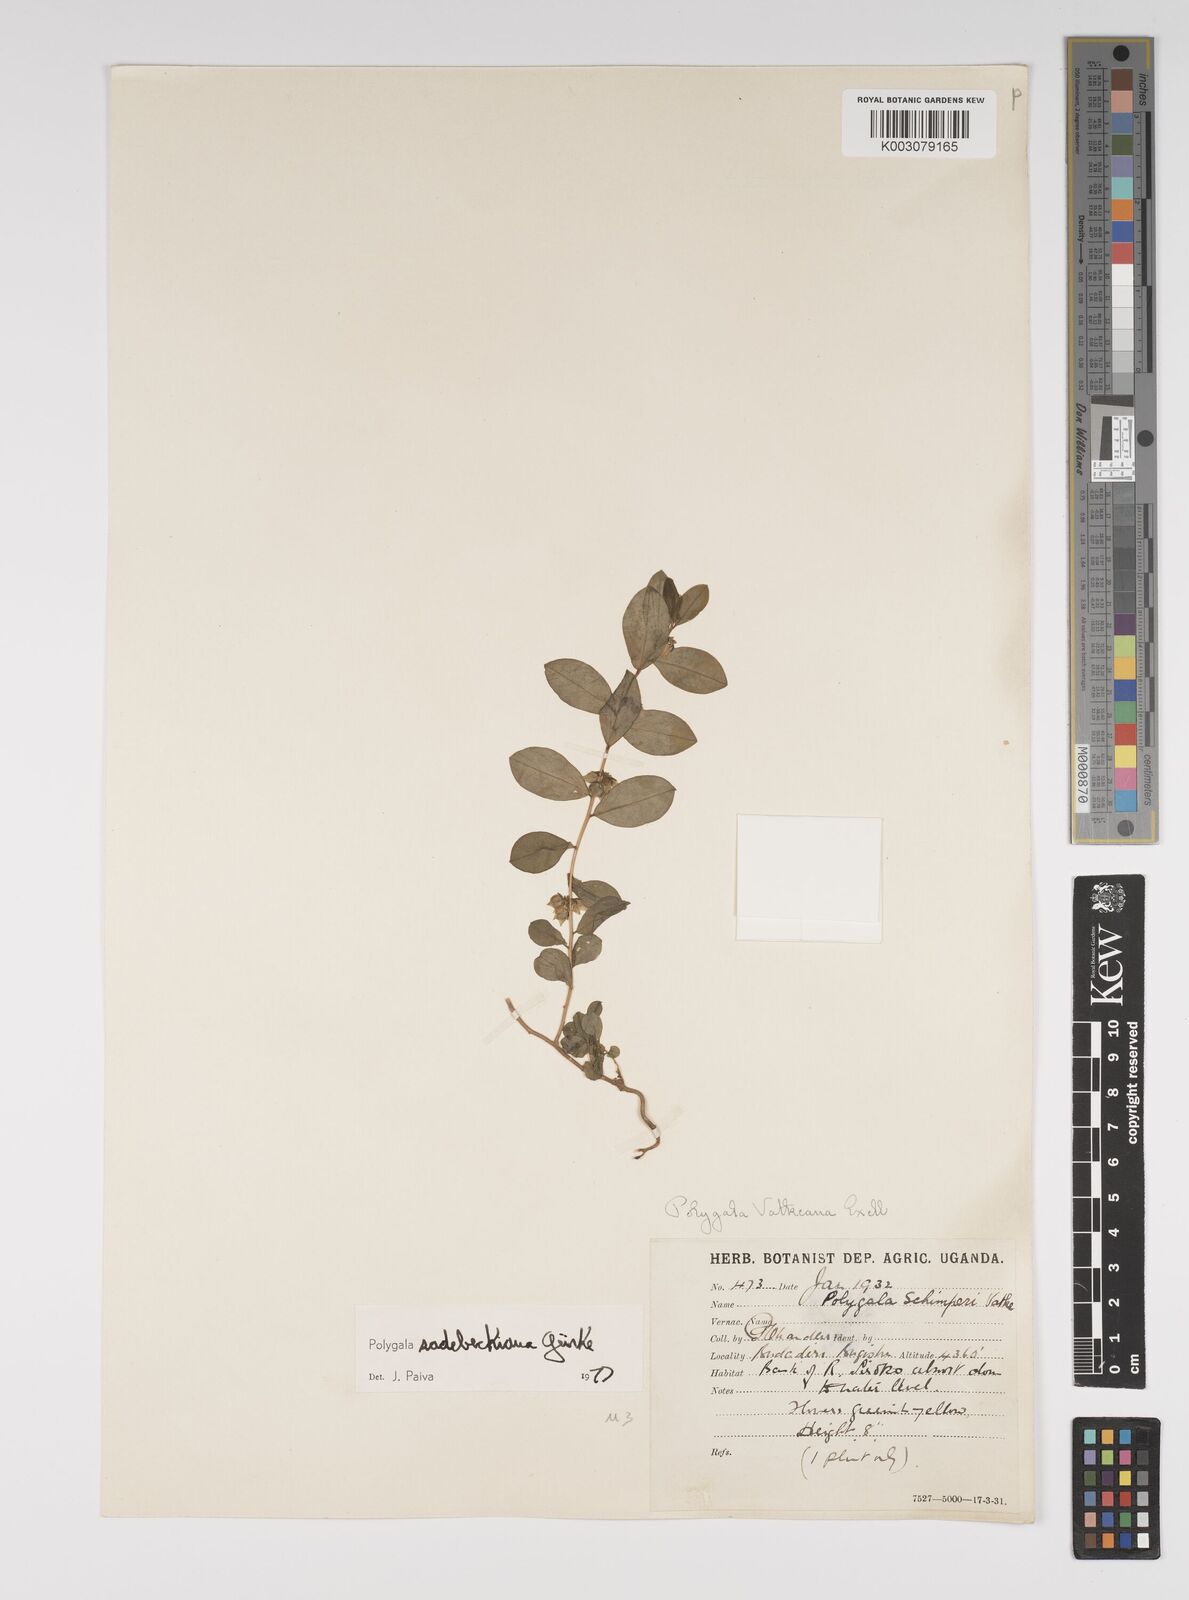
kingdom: Plantae
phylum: Tracheophyta
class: Magnoliopsida
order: Fabales
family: Polygalaceae
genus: Polygala
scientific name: Polygala sadebeckiana
